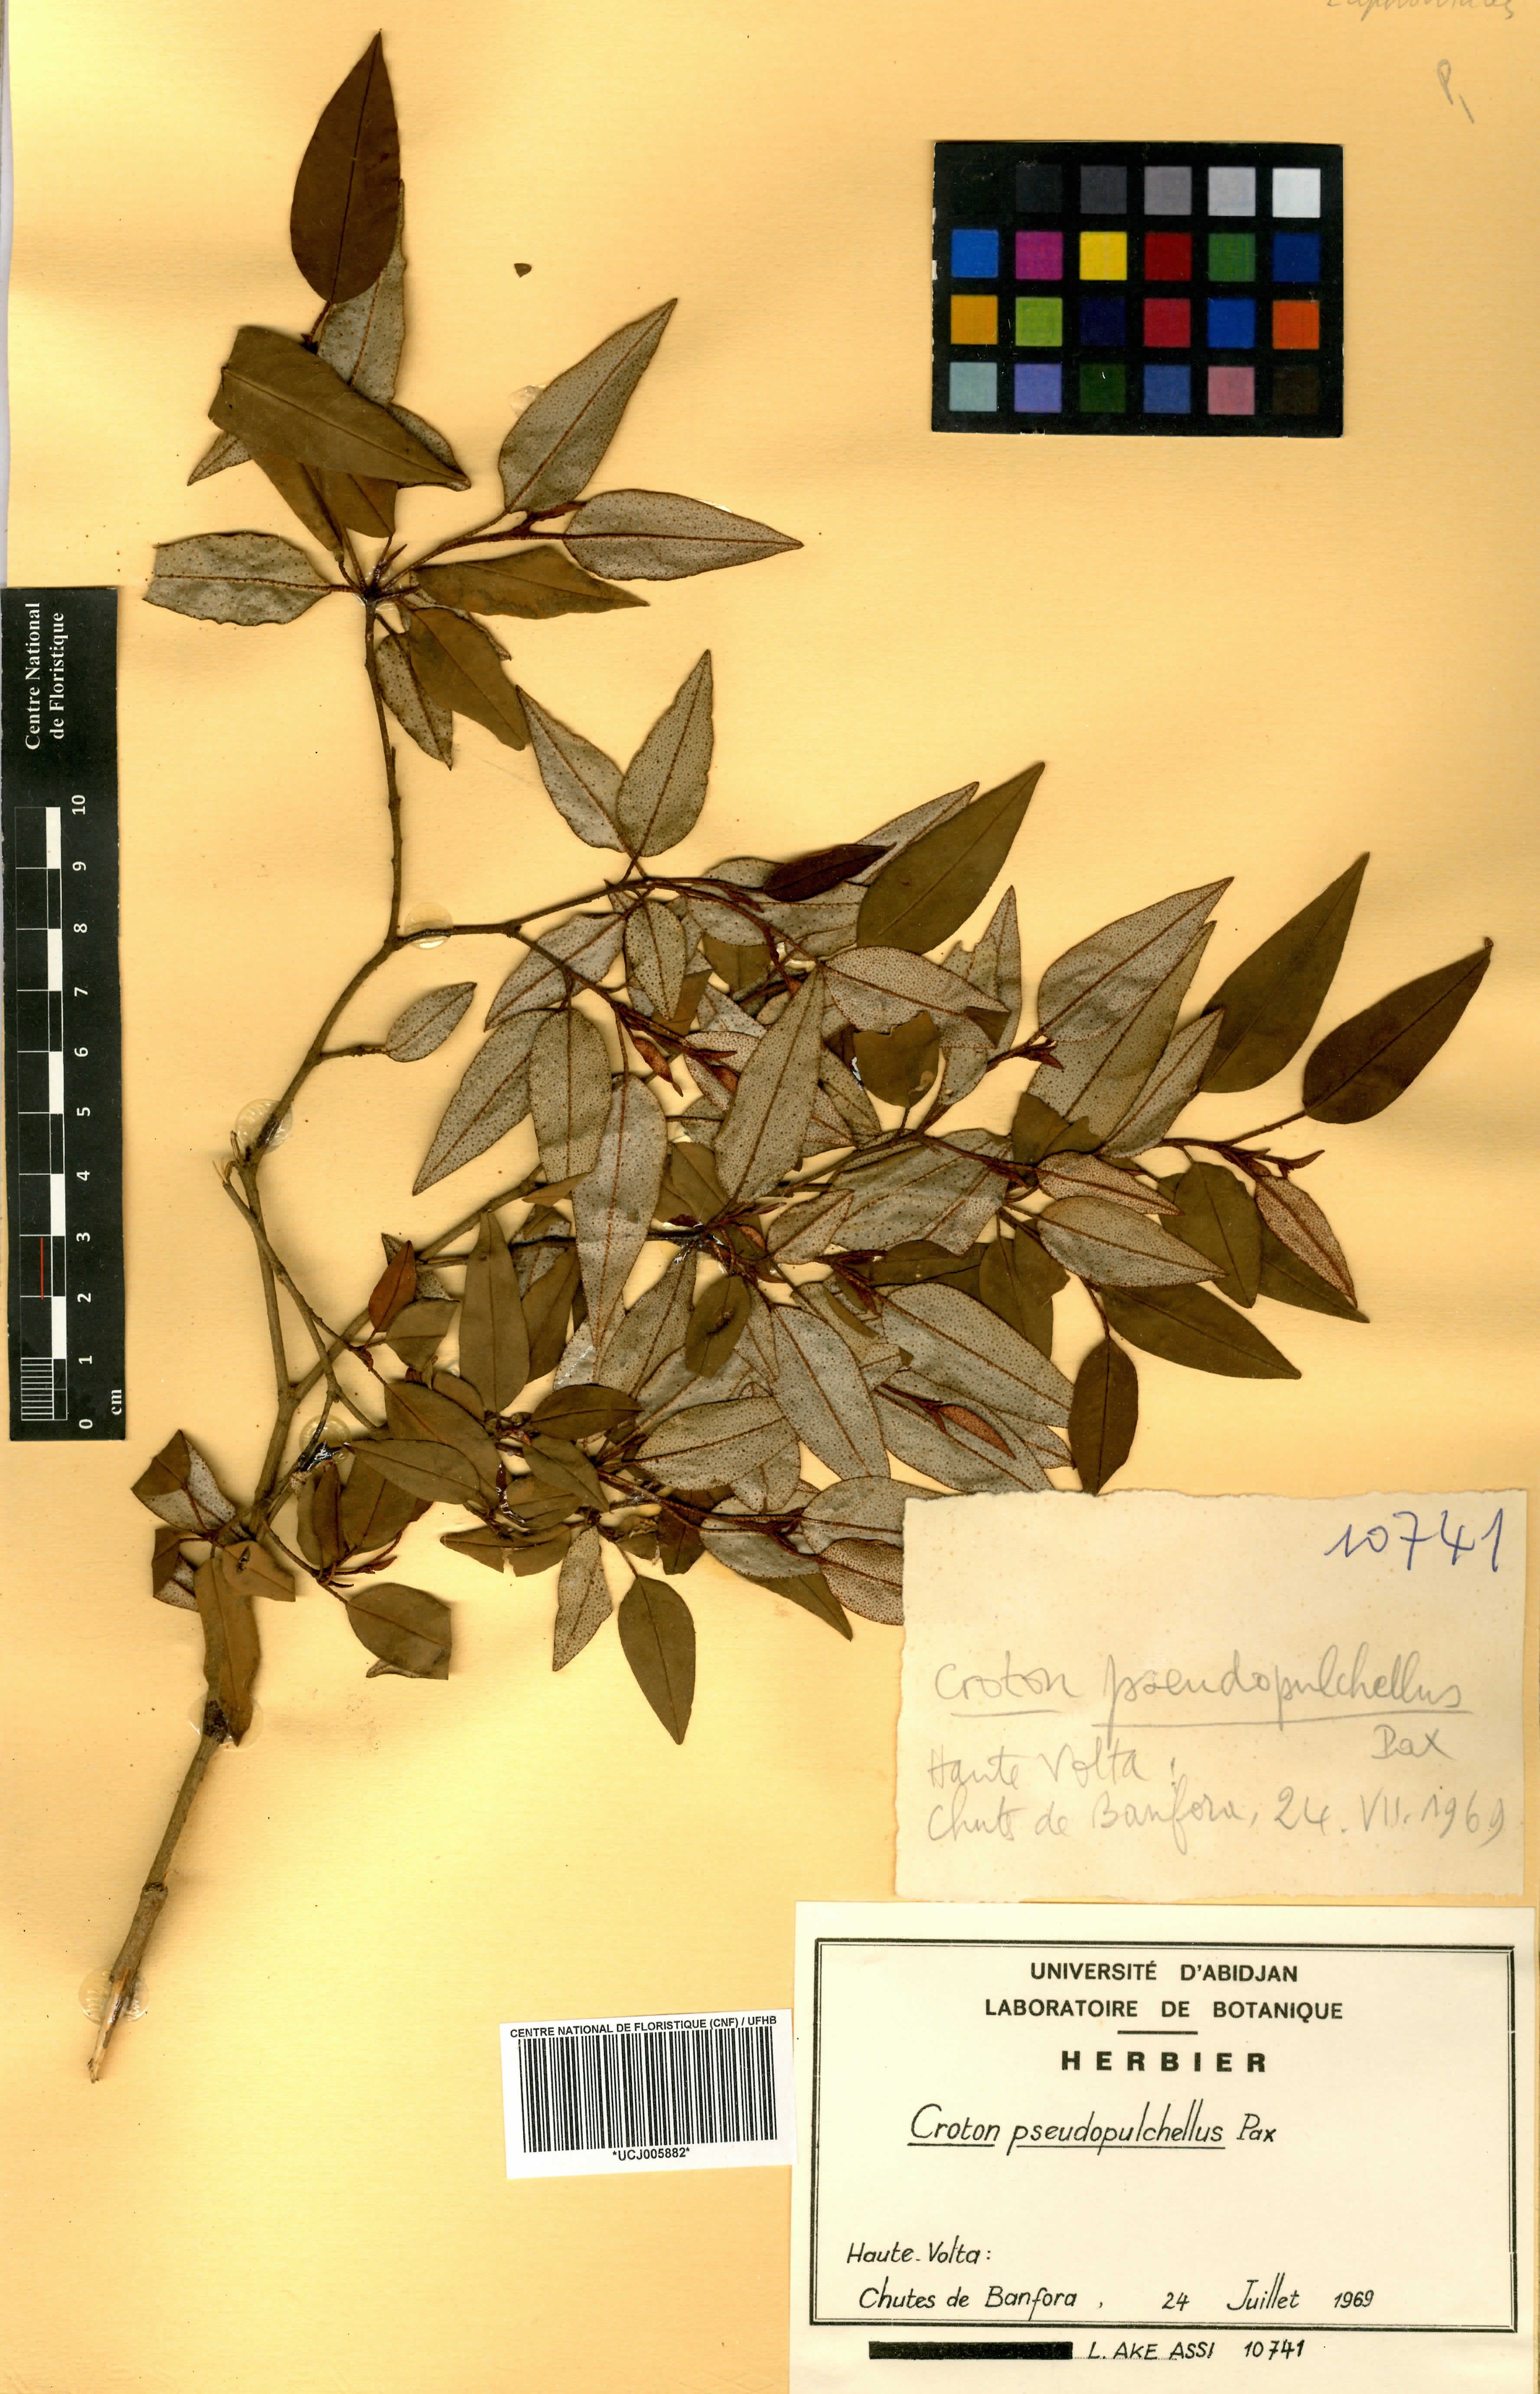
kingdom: Plantae
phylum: Tracheophyta
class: Magnoliopsida
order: Malpighiales
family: Euphorbiaceae
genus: Croton
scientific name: Croton pseudopulchellus
